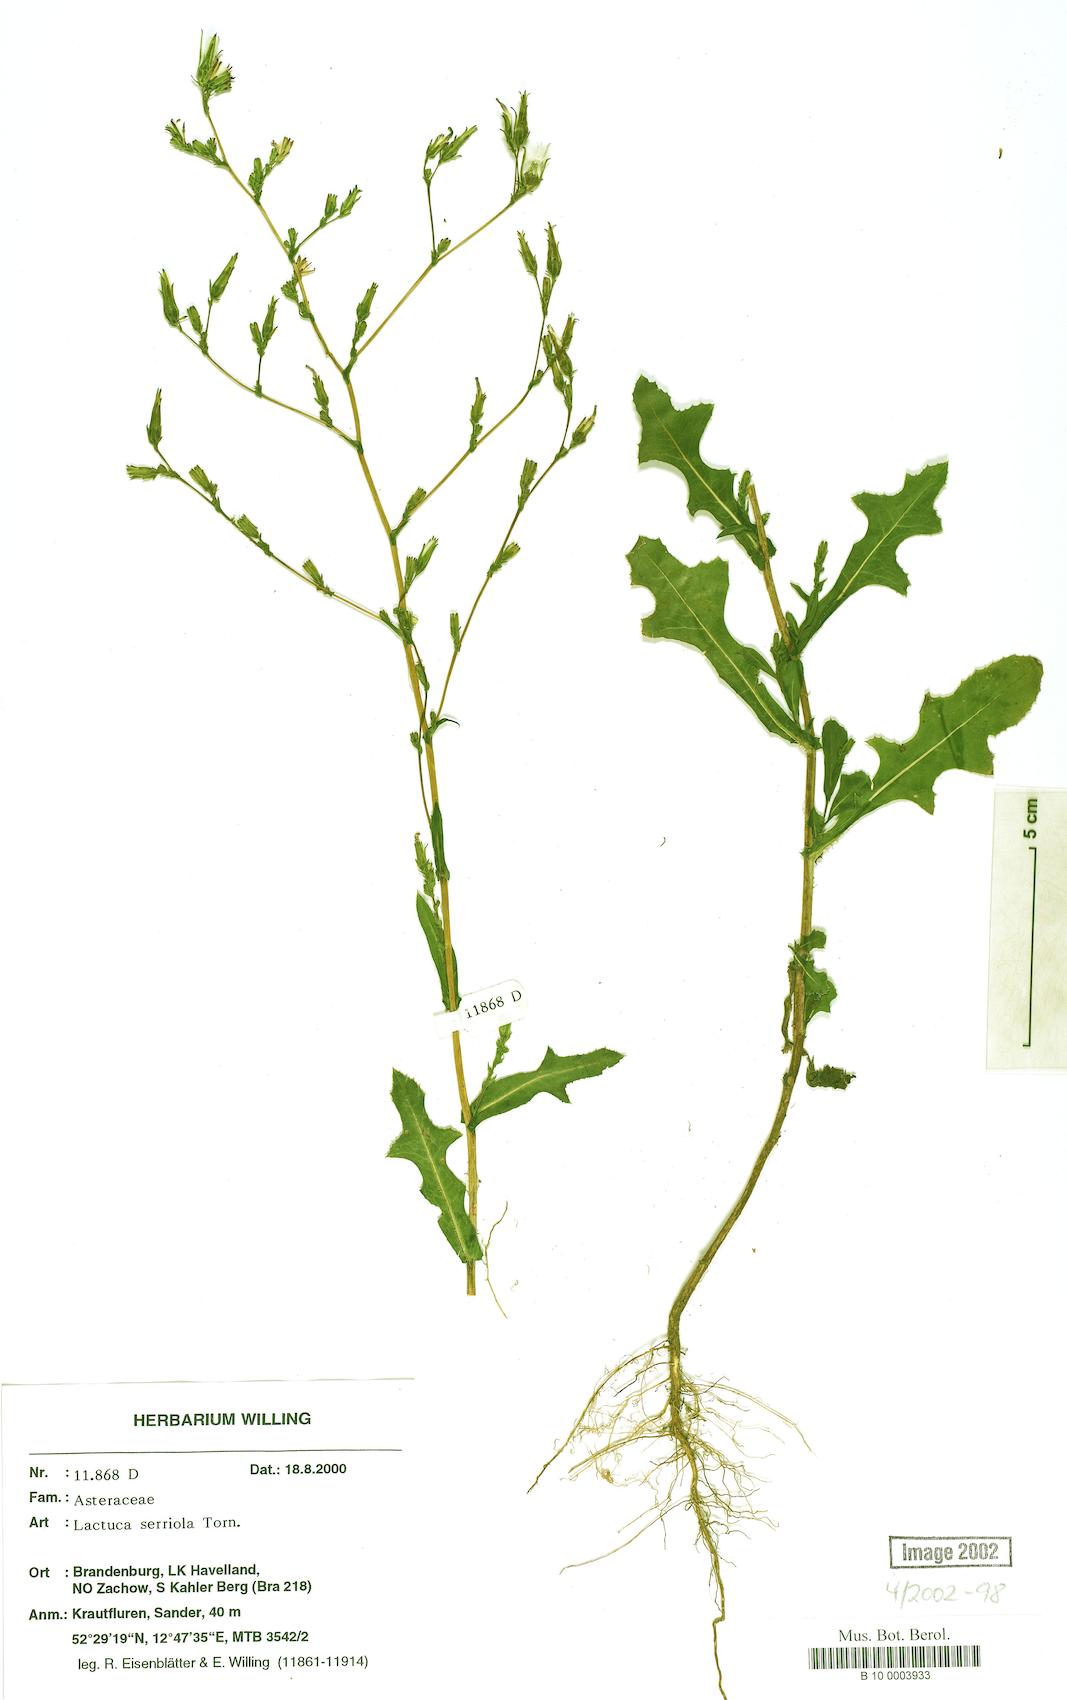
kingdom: Plantae
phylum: Tracheophyta
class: Magnoliopsida
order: Asterales
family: Asteraceae
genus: Lactuca
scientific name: Lactuca serriola
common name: Prickly lettuce
